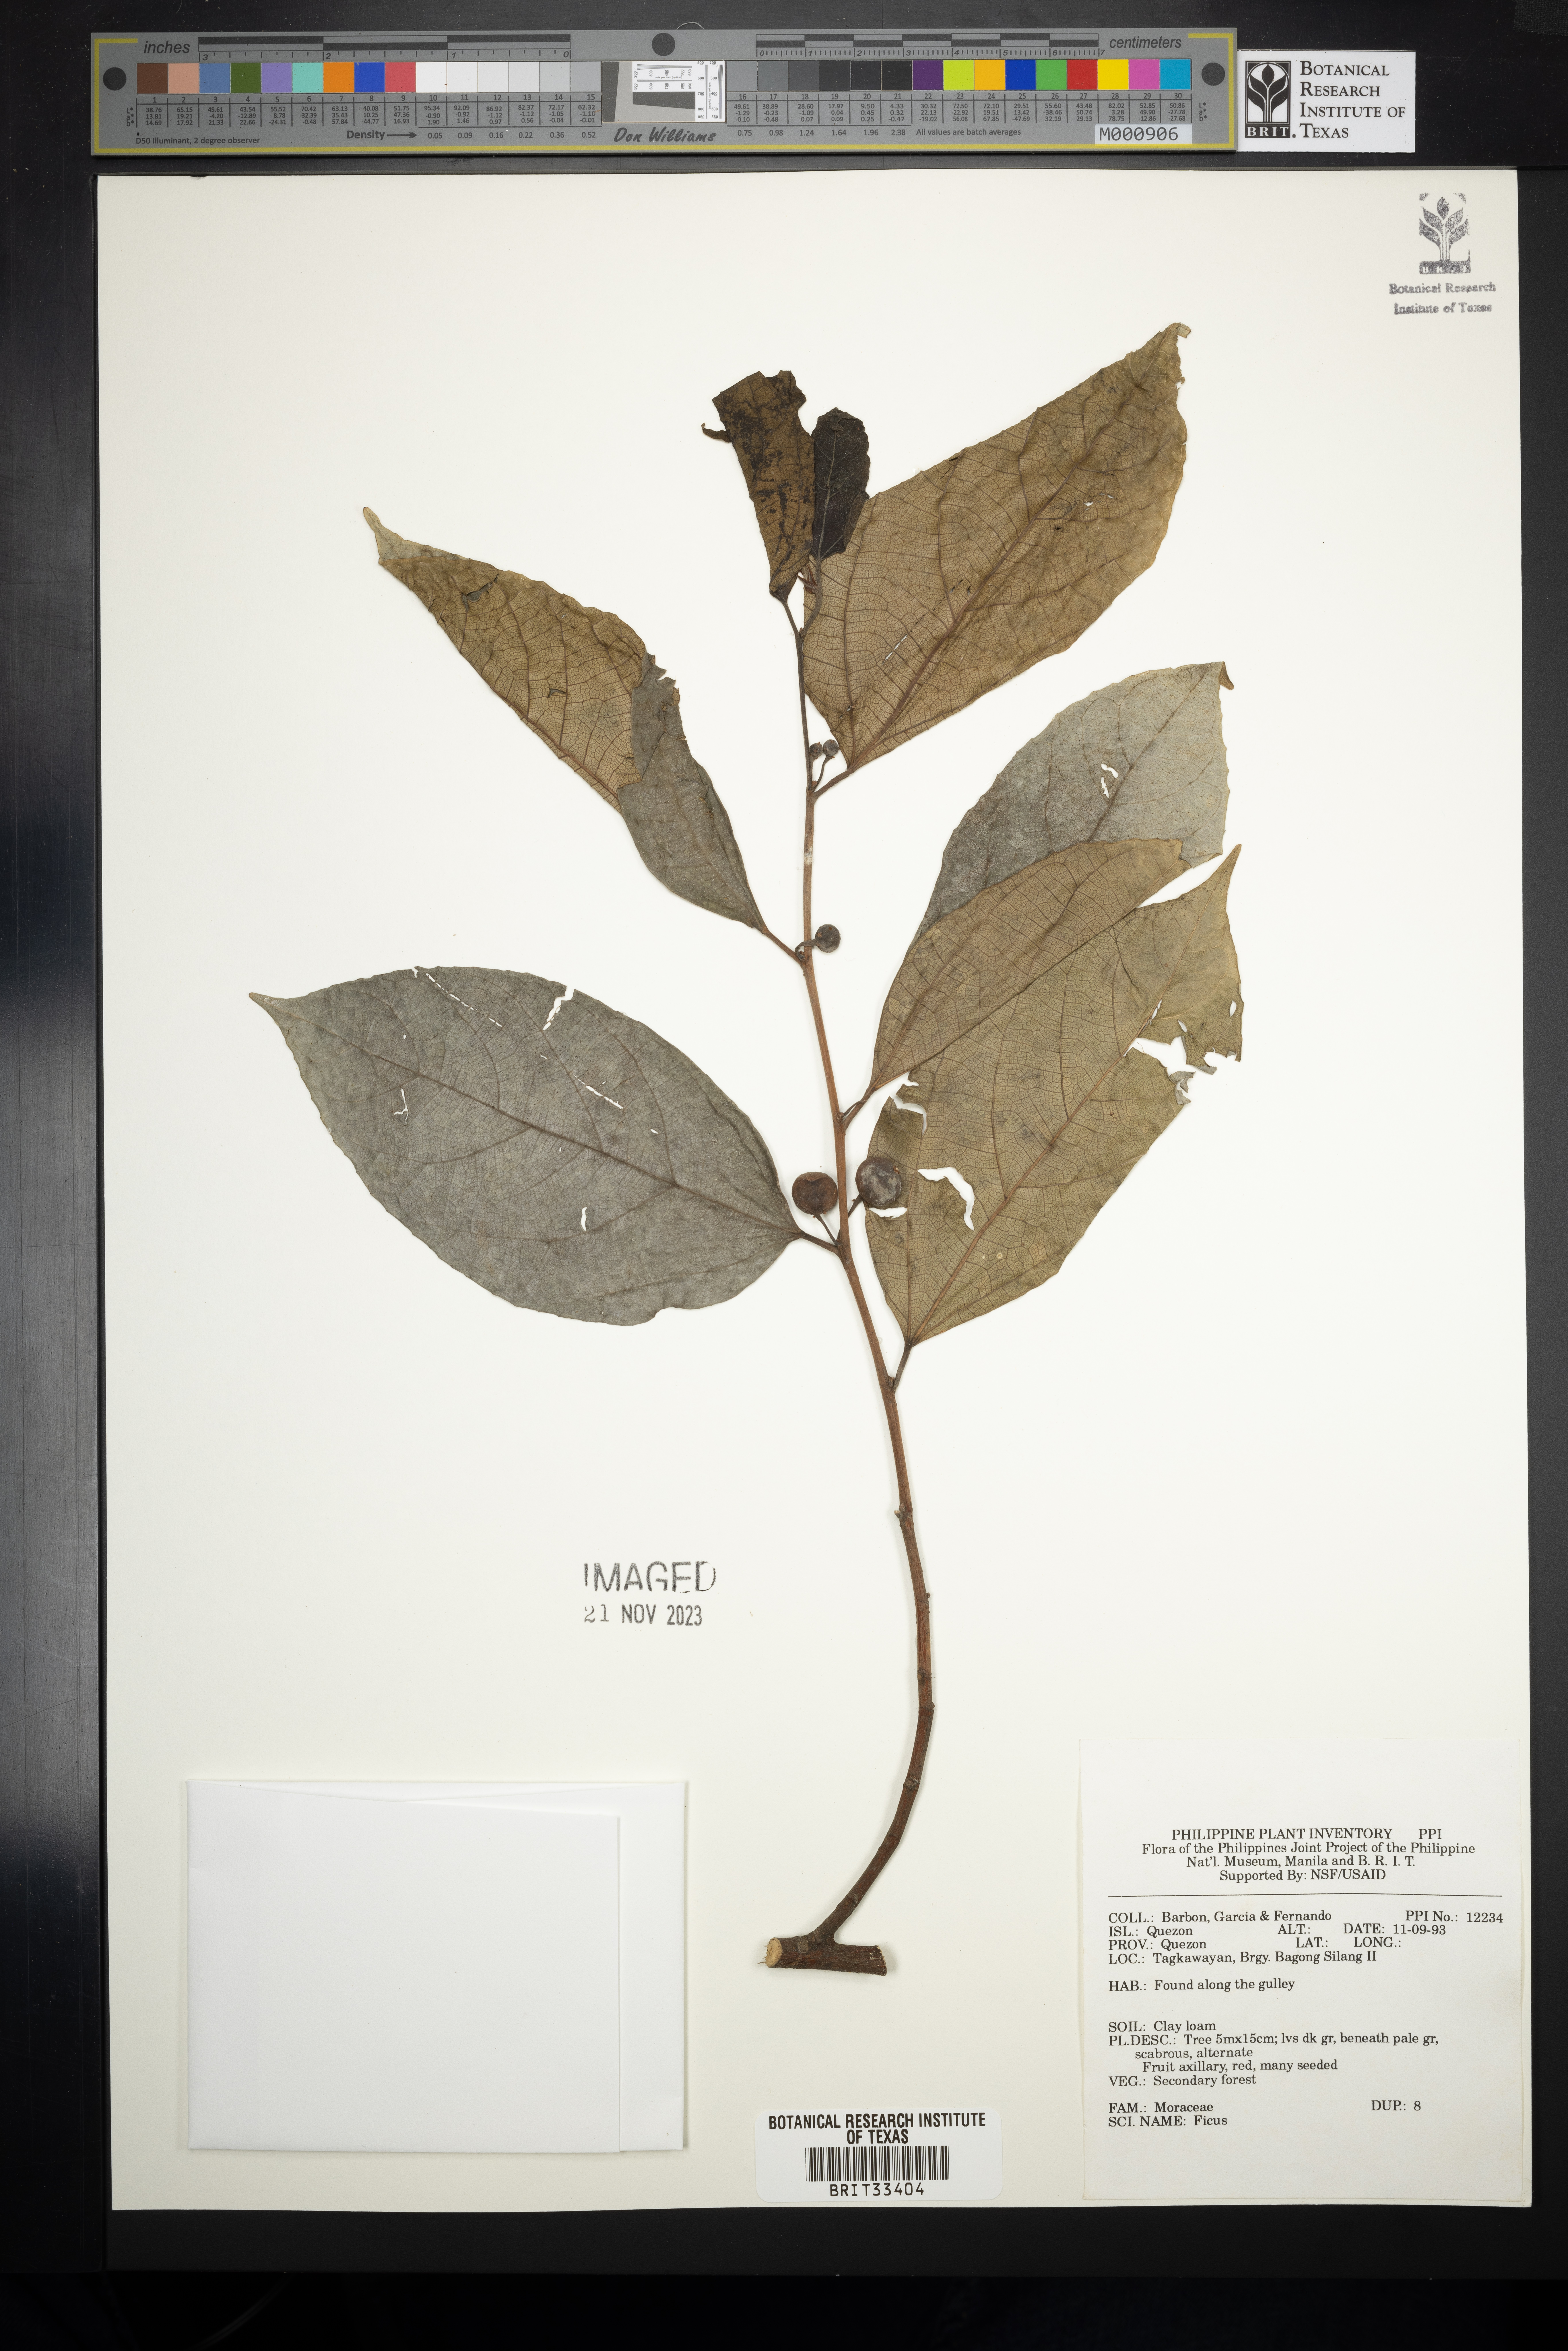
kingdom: Plantae
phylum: Tracheophyta
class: Magnoliopsida
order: Rosales
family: Moraceae
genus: Ficus
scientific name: Ficus
